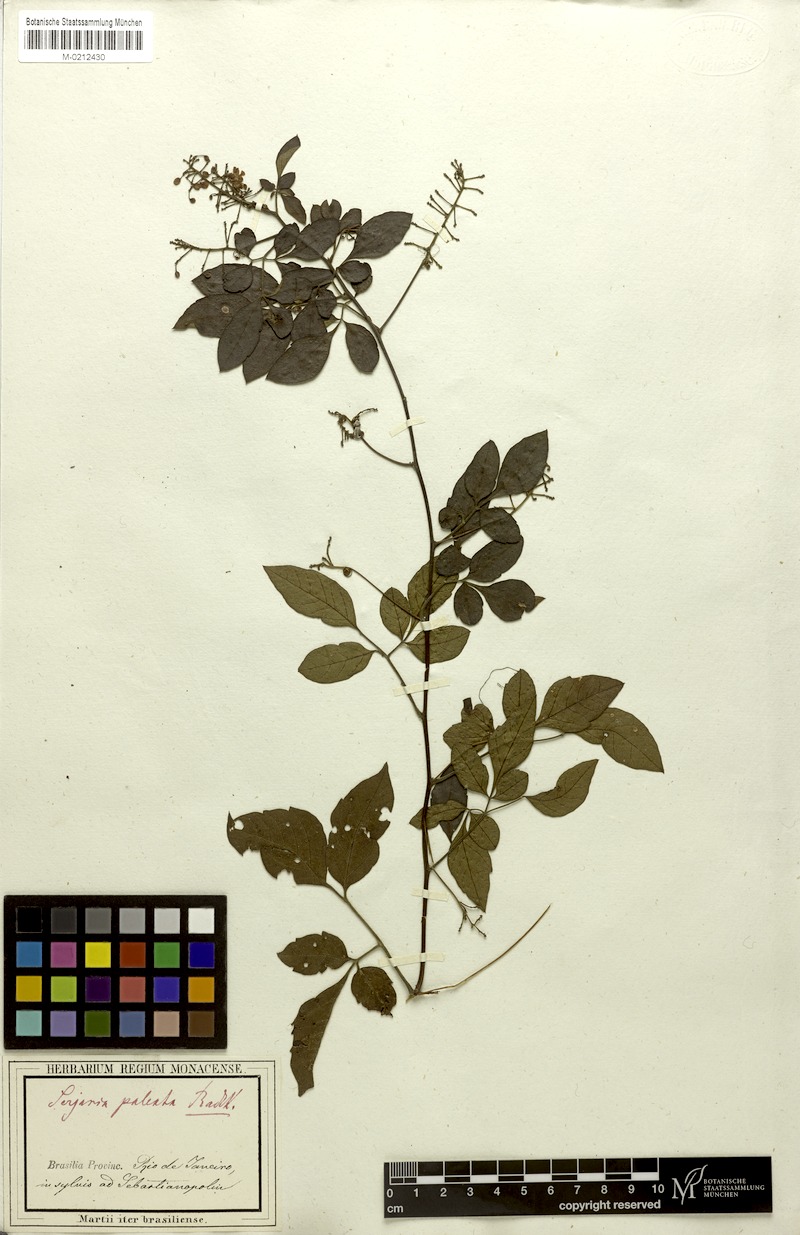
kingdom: Plantae
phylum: Tracheophyta
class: Magnoliopsida
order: Sapindales
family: Sapindaceae
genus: Serjania
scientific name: Serjania paleata
